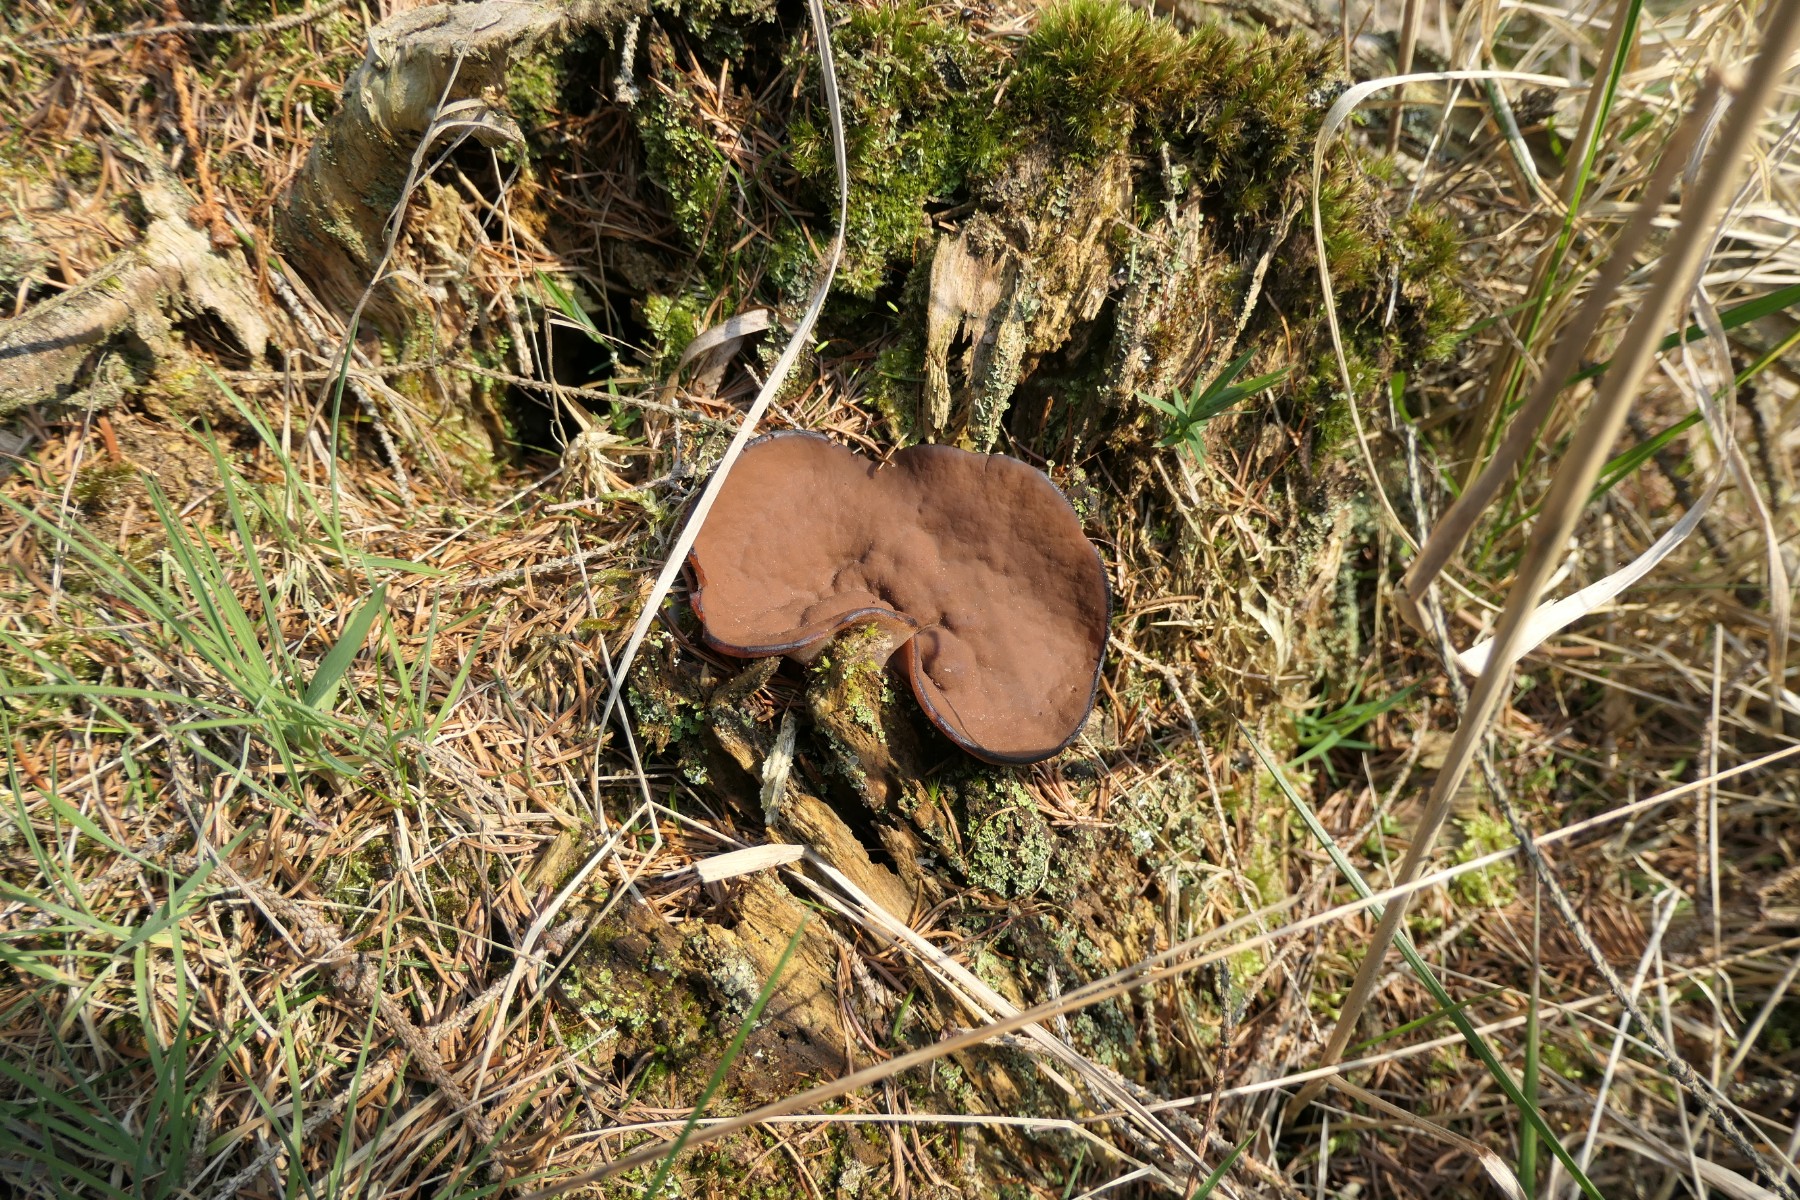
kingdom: Fungi
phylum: Ascomycota
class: Pezizomycetes
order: Pezizales
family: Discinaceae
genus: Discina
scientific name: Discina ancilis
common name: udbredt stenmorkel
